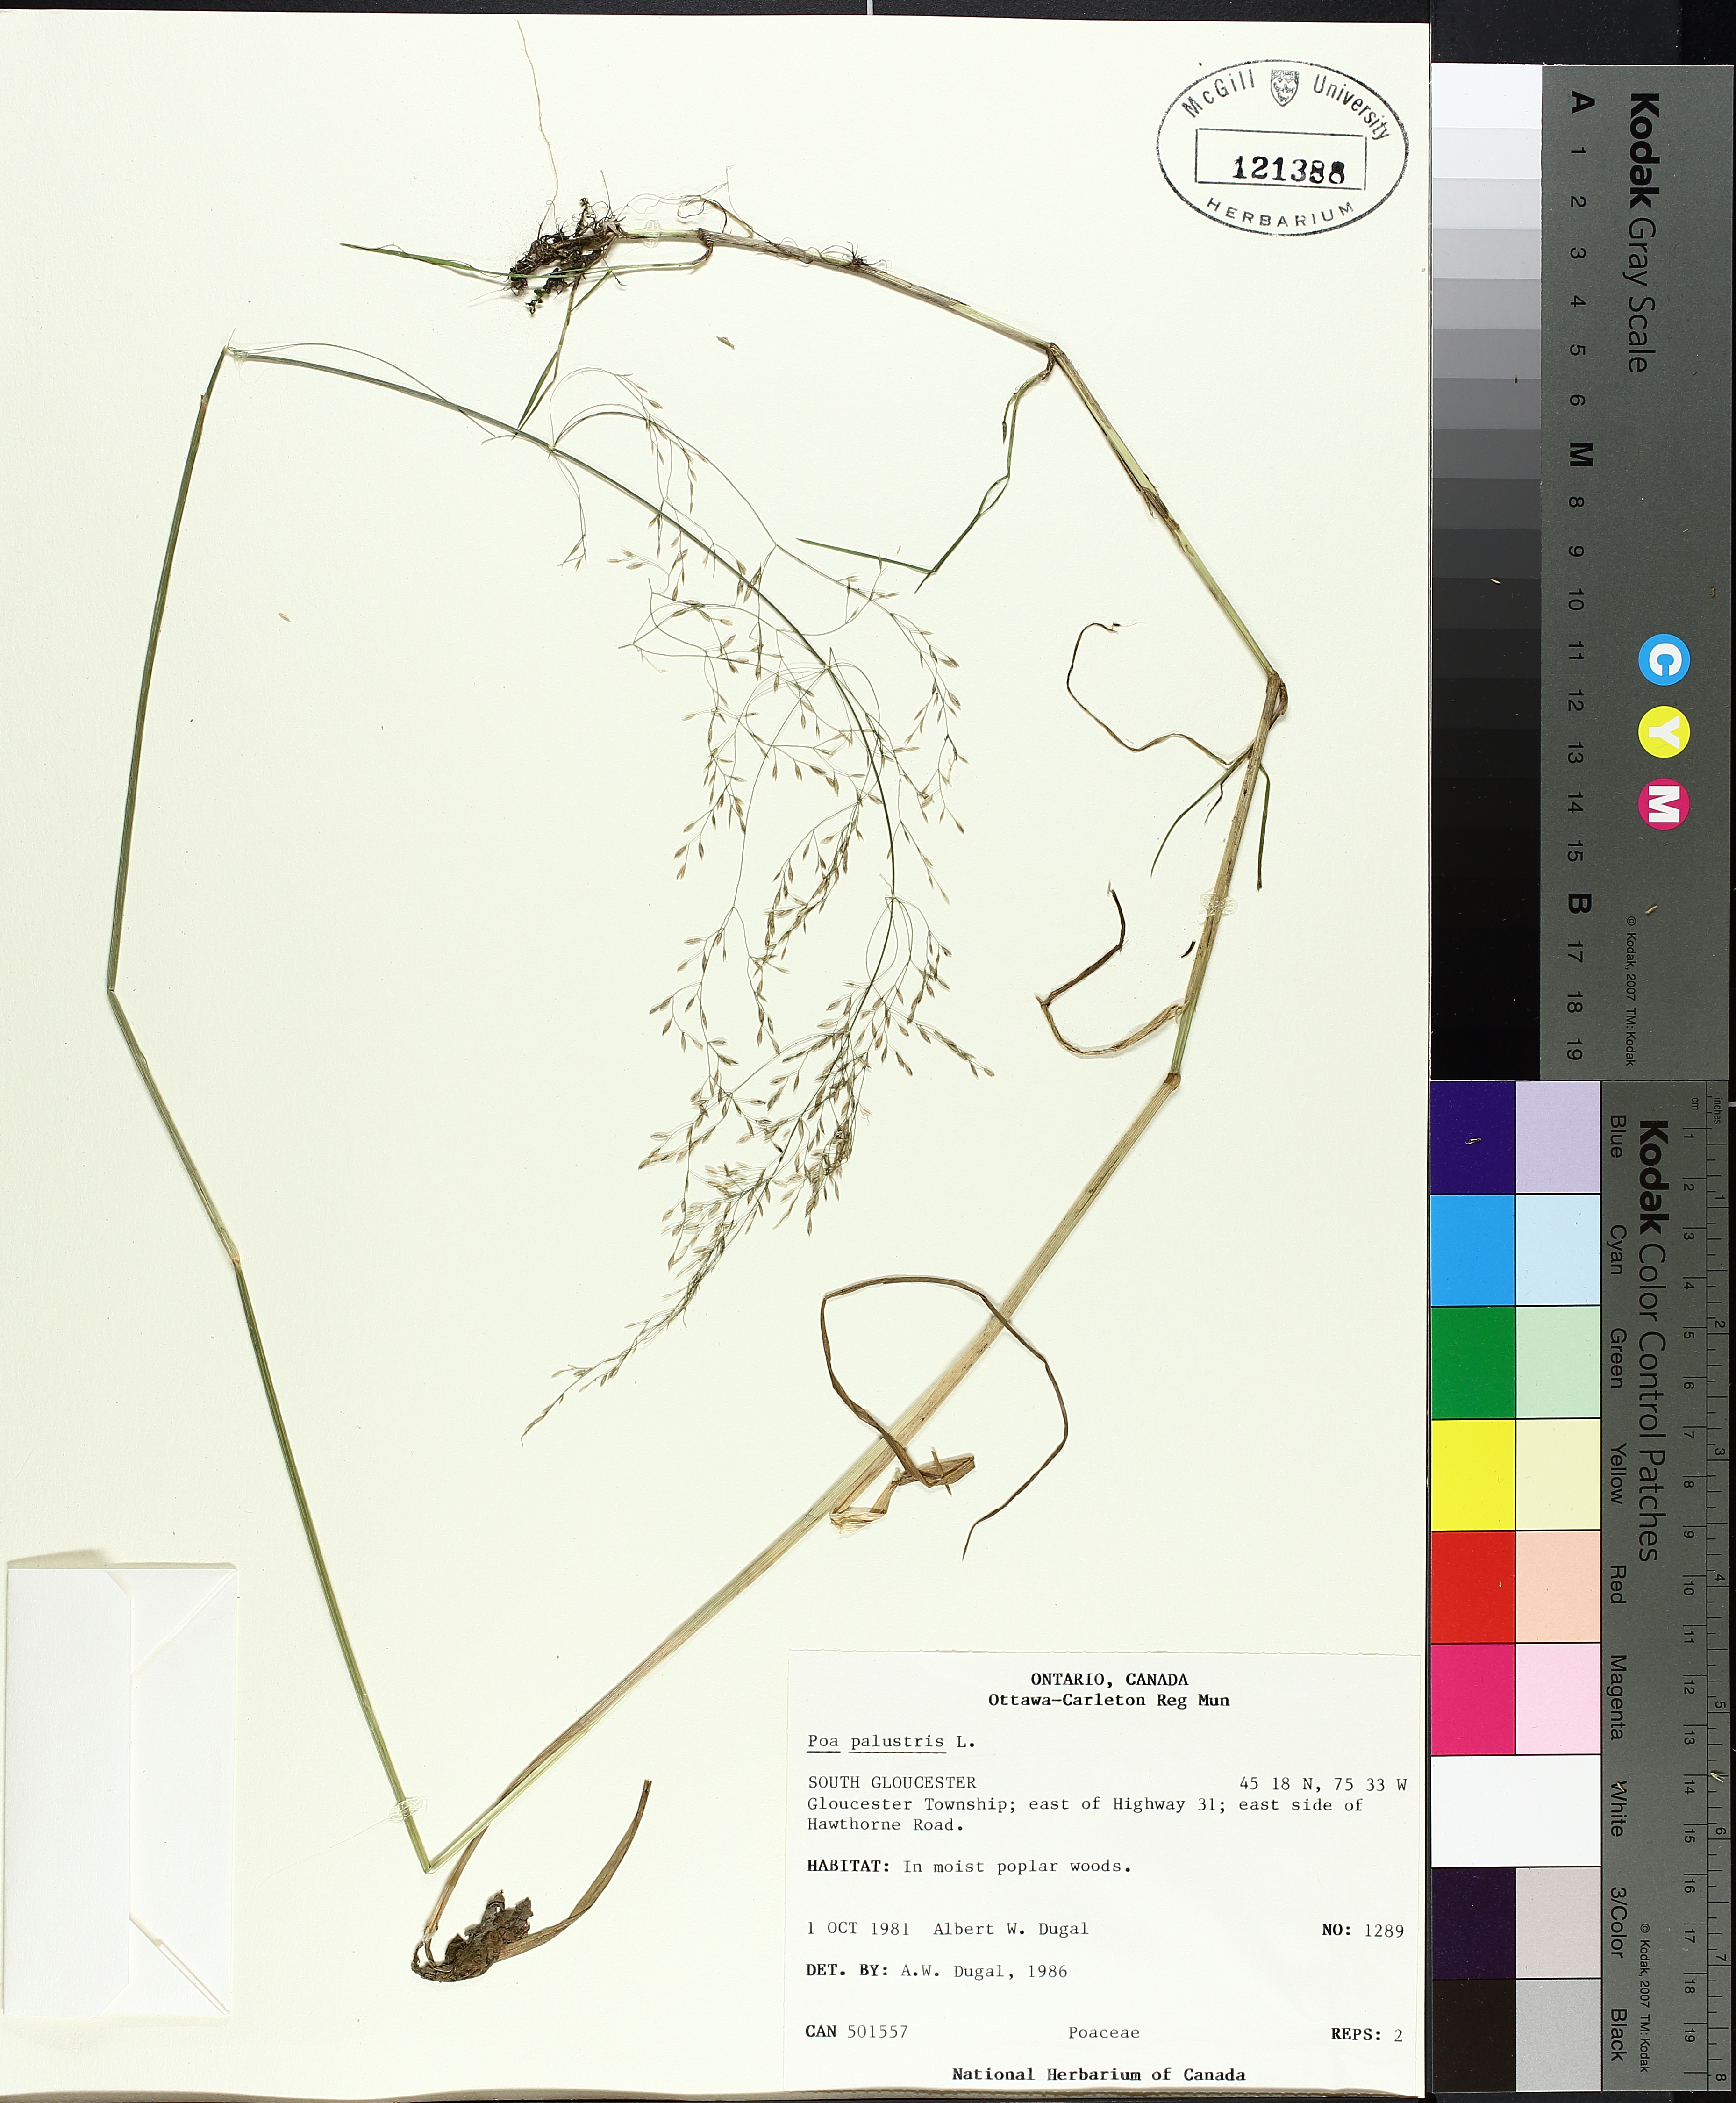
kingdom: Plantae
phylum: Tracheophyta
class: Liliopsida
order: Poales
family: Cyperaceae
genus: Carex
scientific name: Carex flava
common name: Large yellow-sedge
